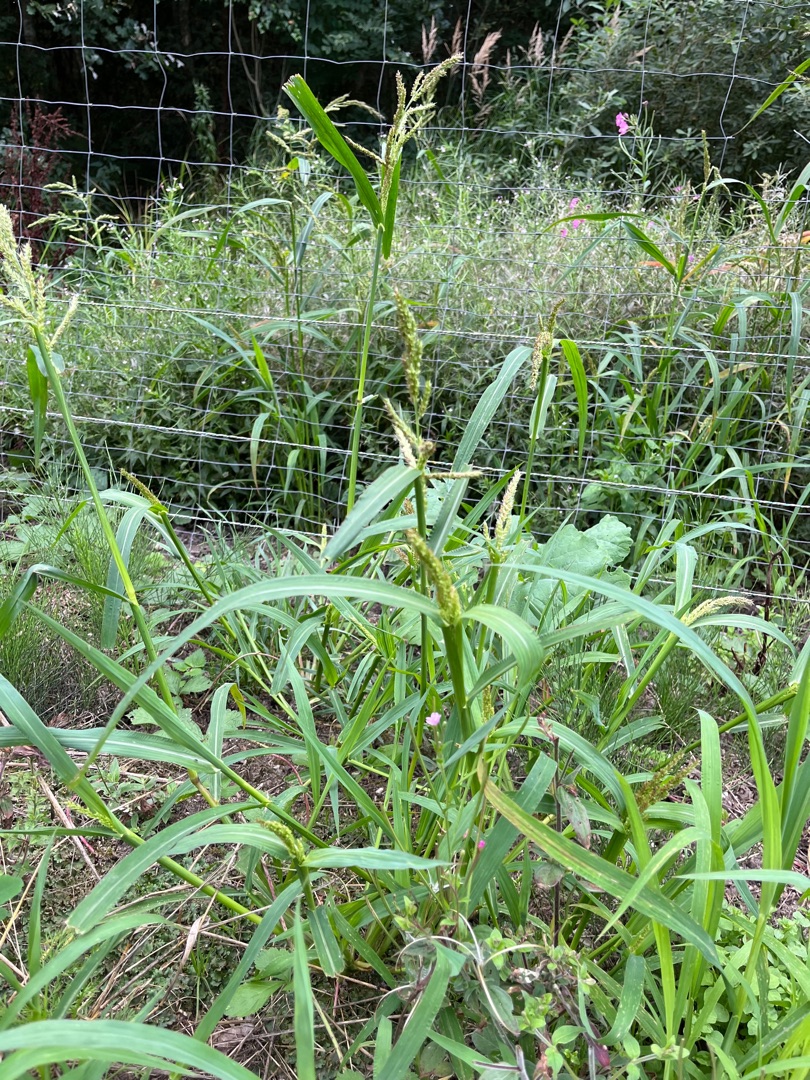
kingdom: Plantae
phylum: Tracheophyta
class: Liliopsida
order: Poales
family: Poaceae
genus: Echinochloa
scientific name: Echinochloa crus-galli
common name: Almindelig hanespore
